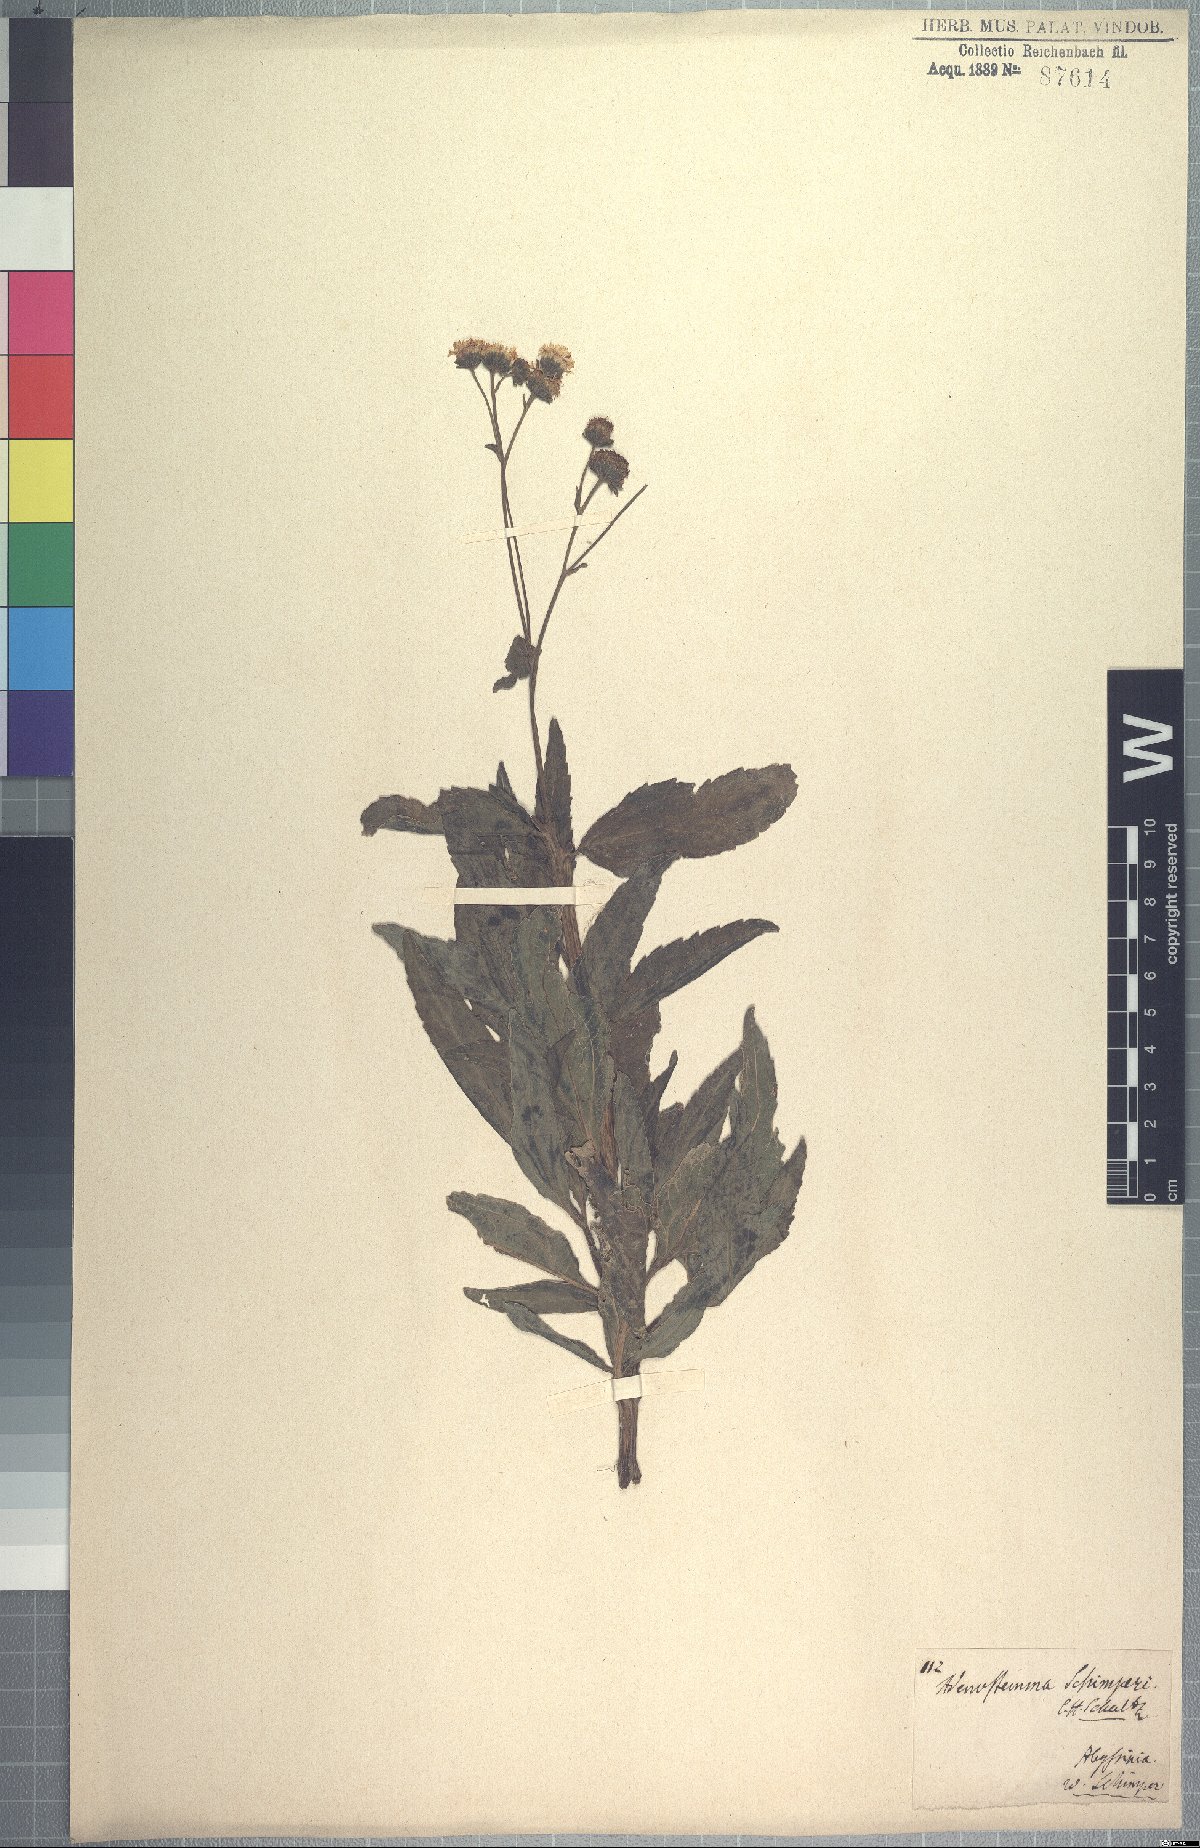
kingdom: Plantae
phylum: Tracheophyta
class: Magnoliopsida
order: Asterales
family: Asteraceae
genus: Adenostemma
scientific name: Adenostemma caffrum
